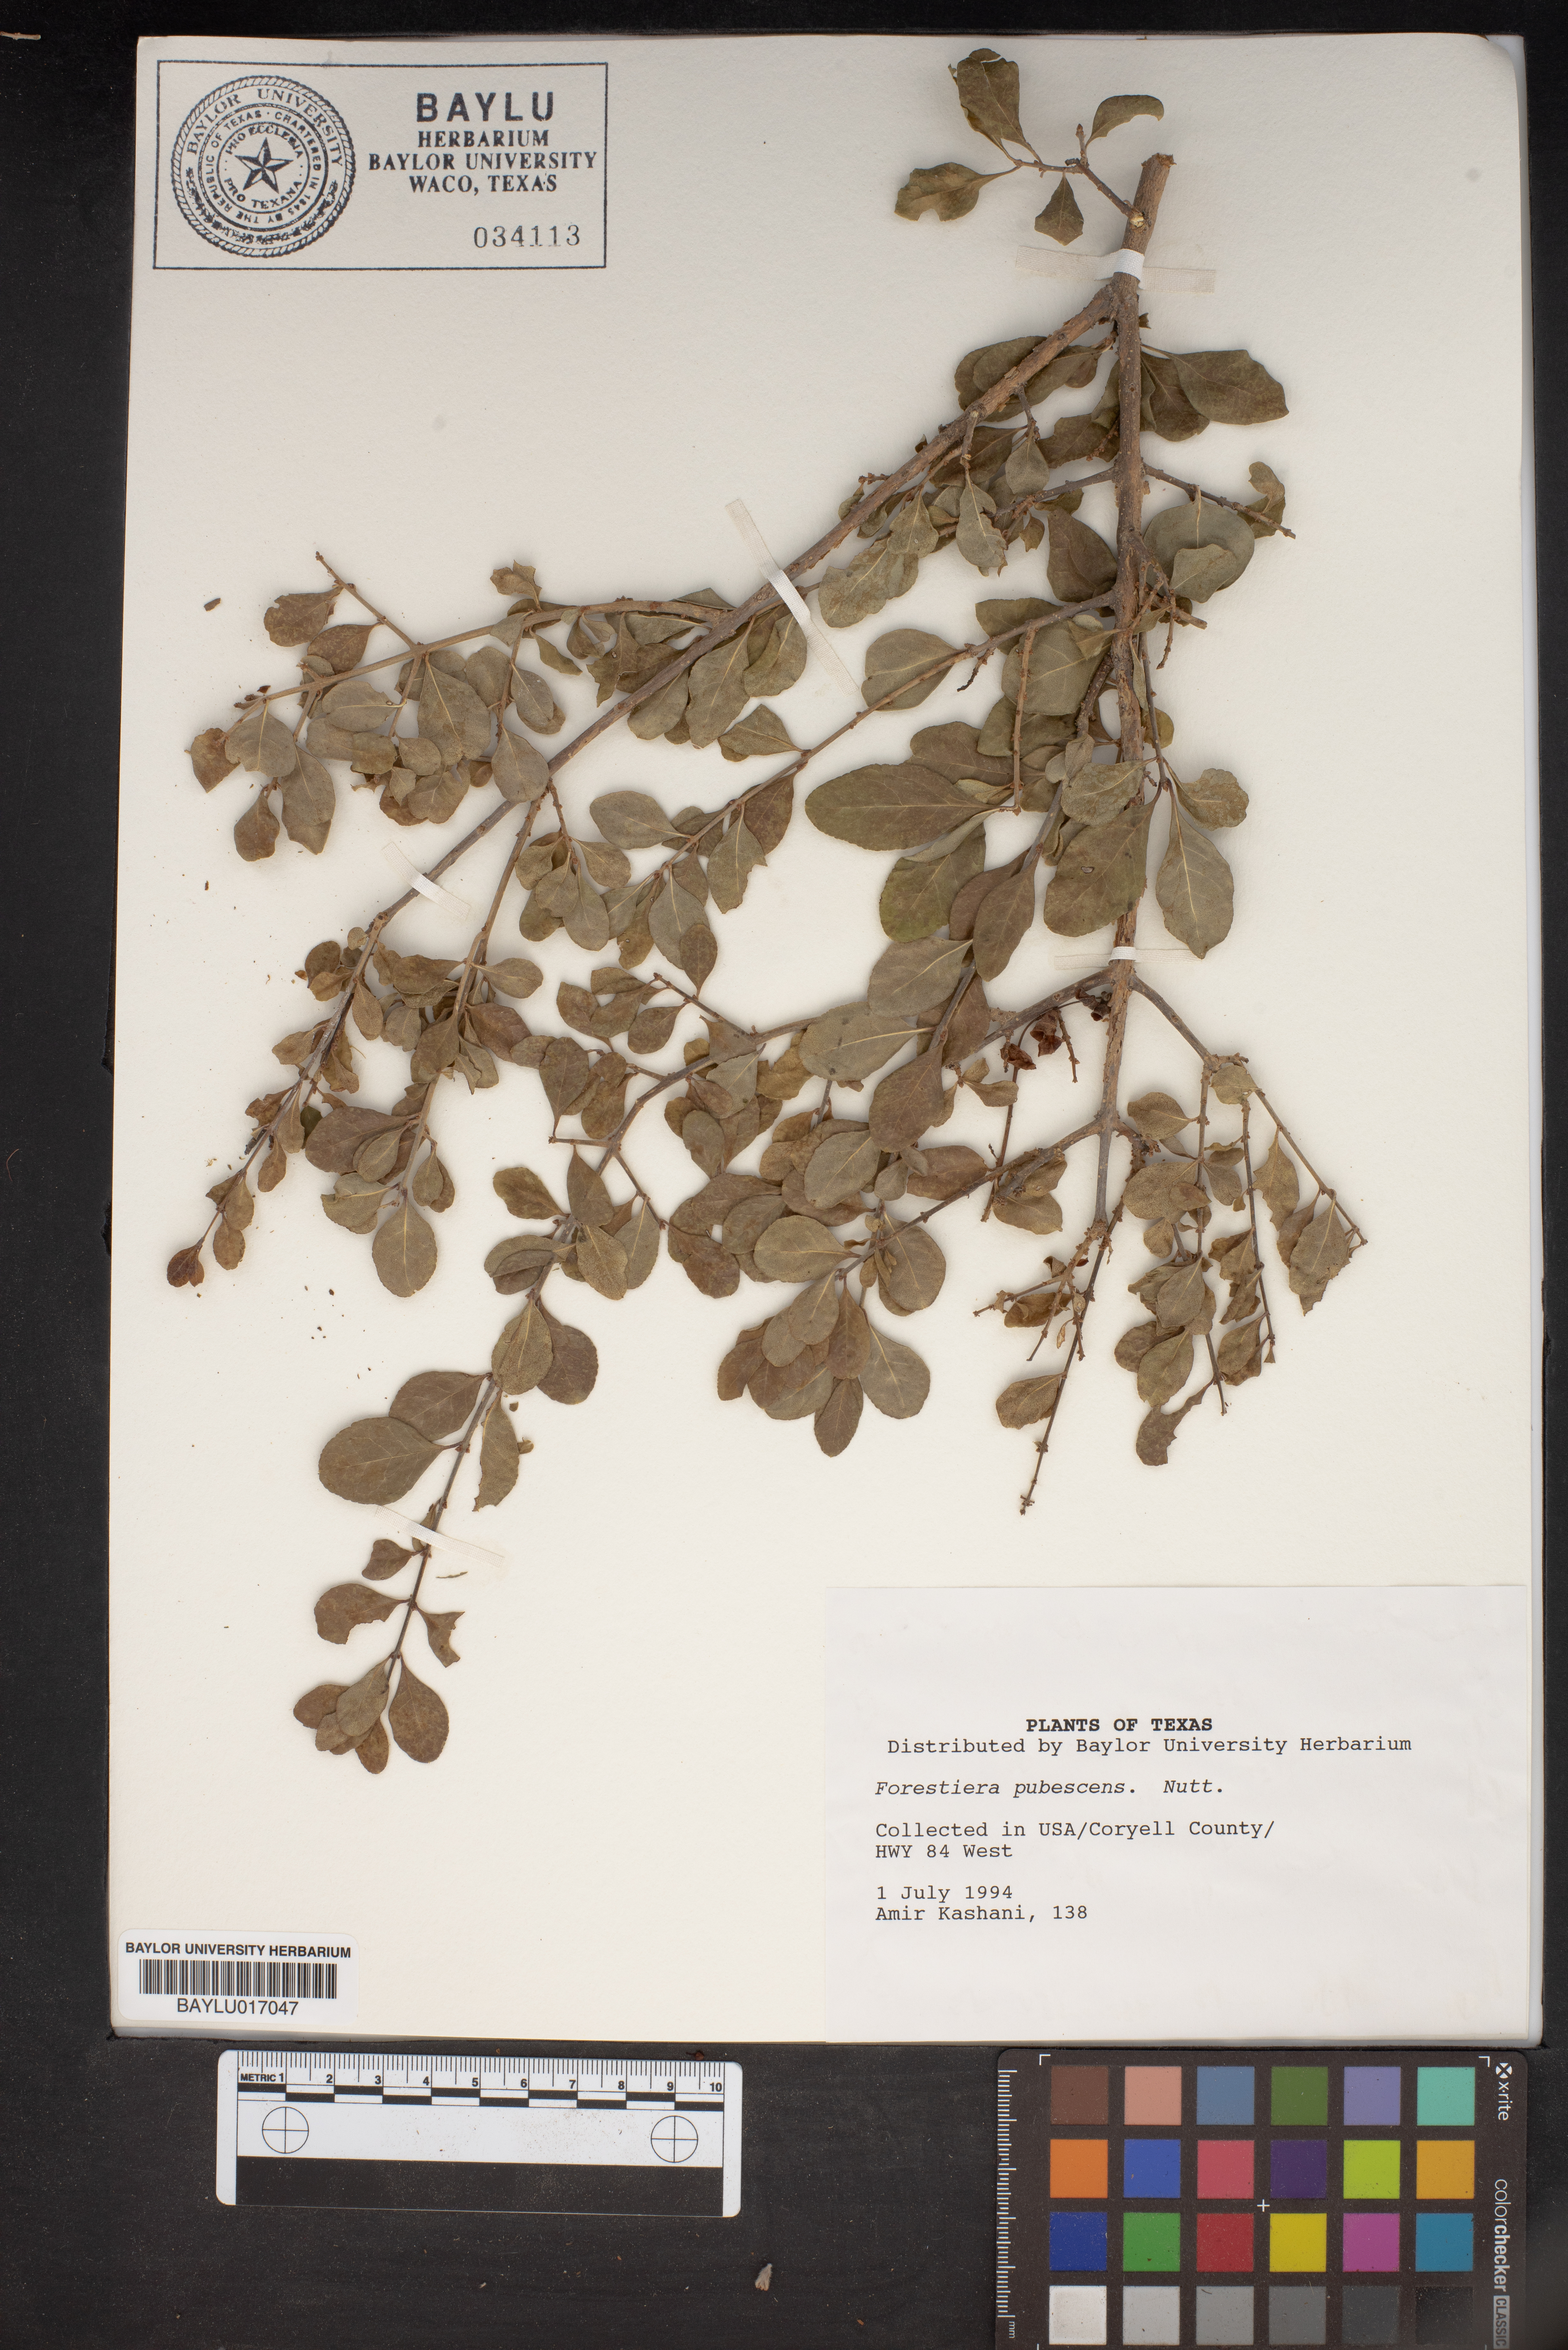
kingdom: Plantae
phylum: Tracheophyta
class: Magnoliopsida
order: Lamiales
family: Oleaceae
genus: Forestiera
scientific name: Forestiera pubescens
